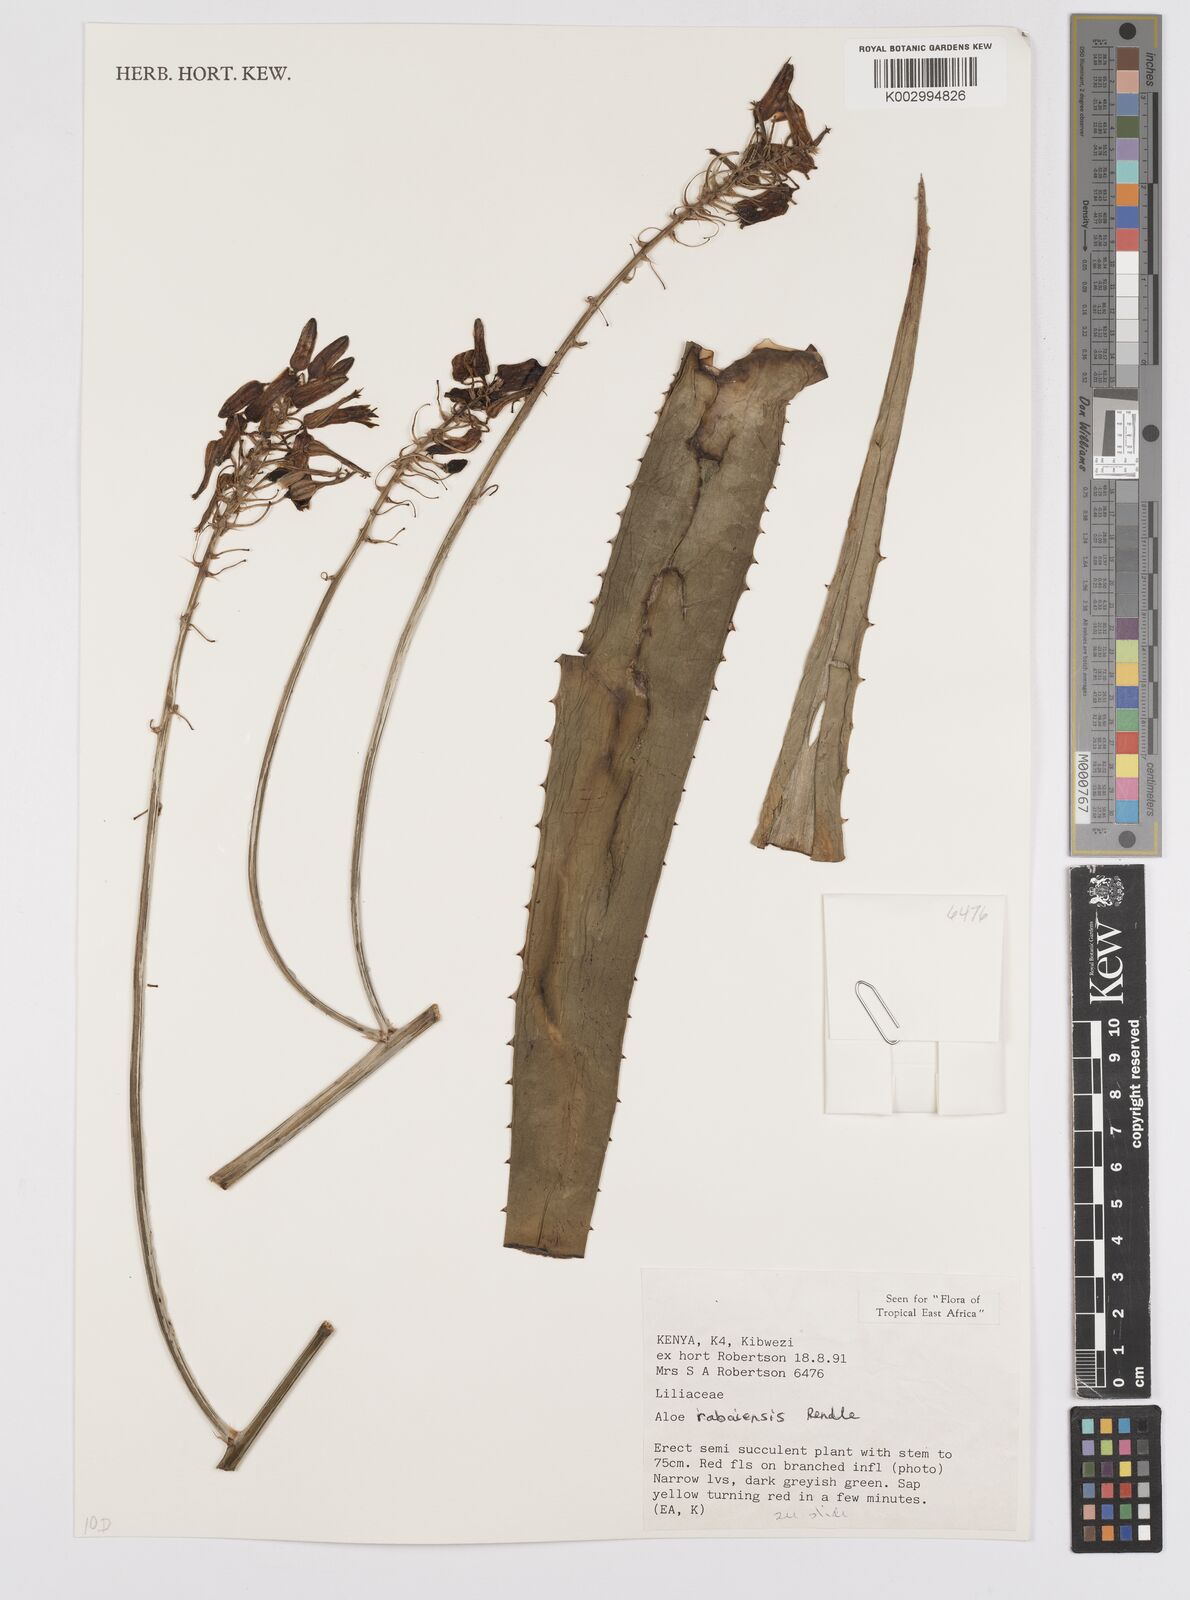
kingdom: Plantae
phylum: Tracheophyta
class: Liliopsida
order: Asparagales
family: Asphodelaceae
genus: Aloe
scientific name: Aloe rabaiensis
